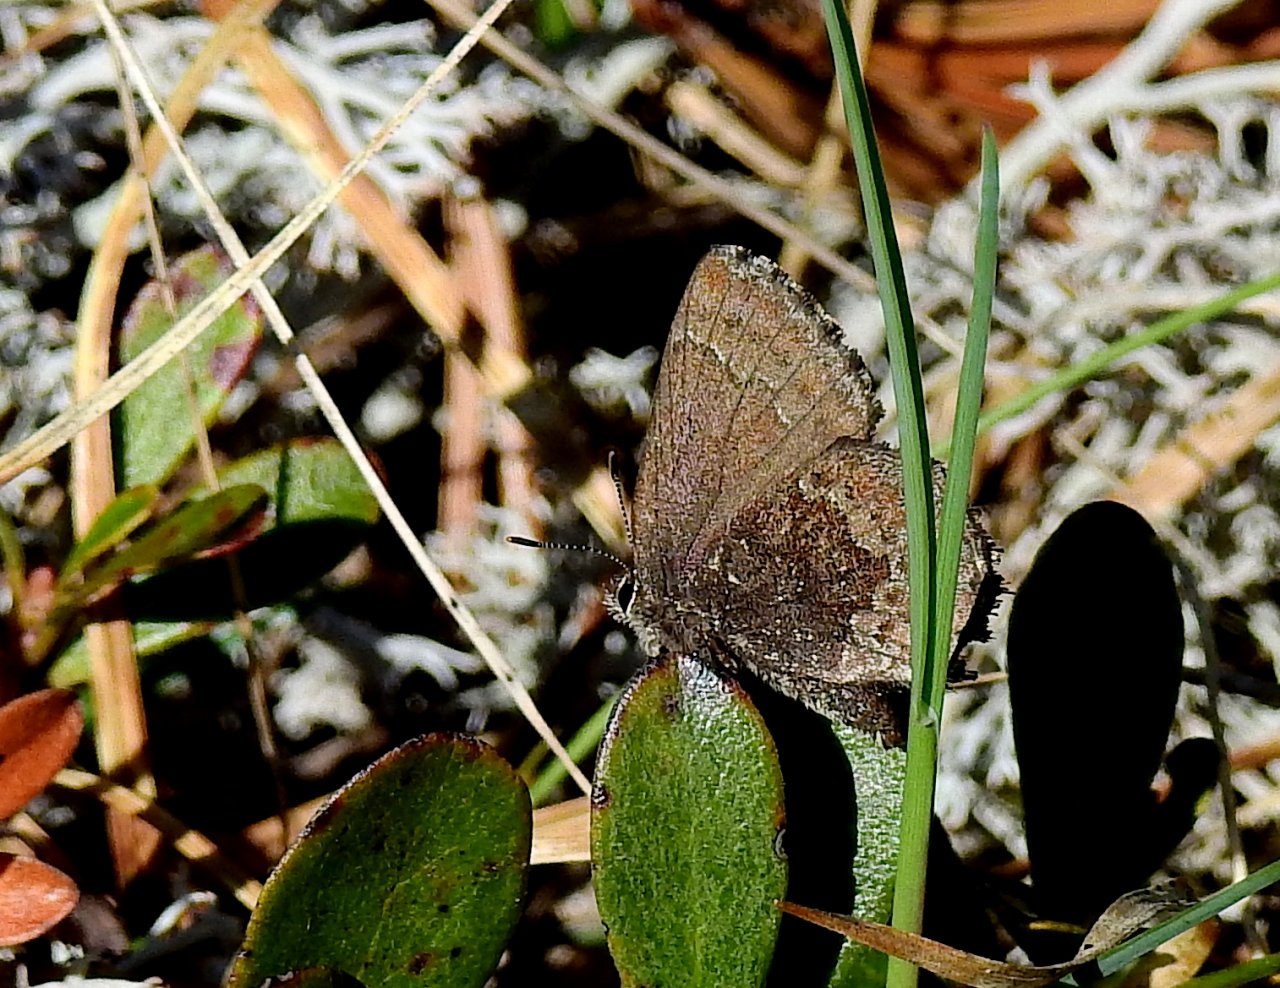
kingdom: Animalia
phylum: Arthropoda
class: Insecta
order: Lepidoptera
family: Lycaenidae
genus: Callophrys
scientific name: Callophrys polios
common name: Hoary Elfin
